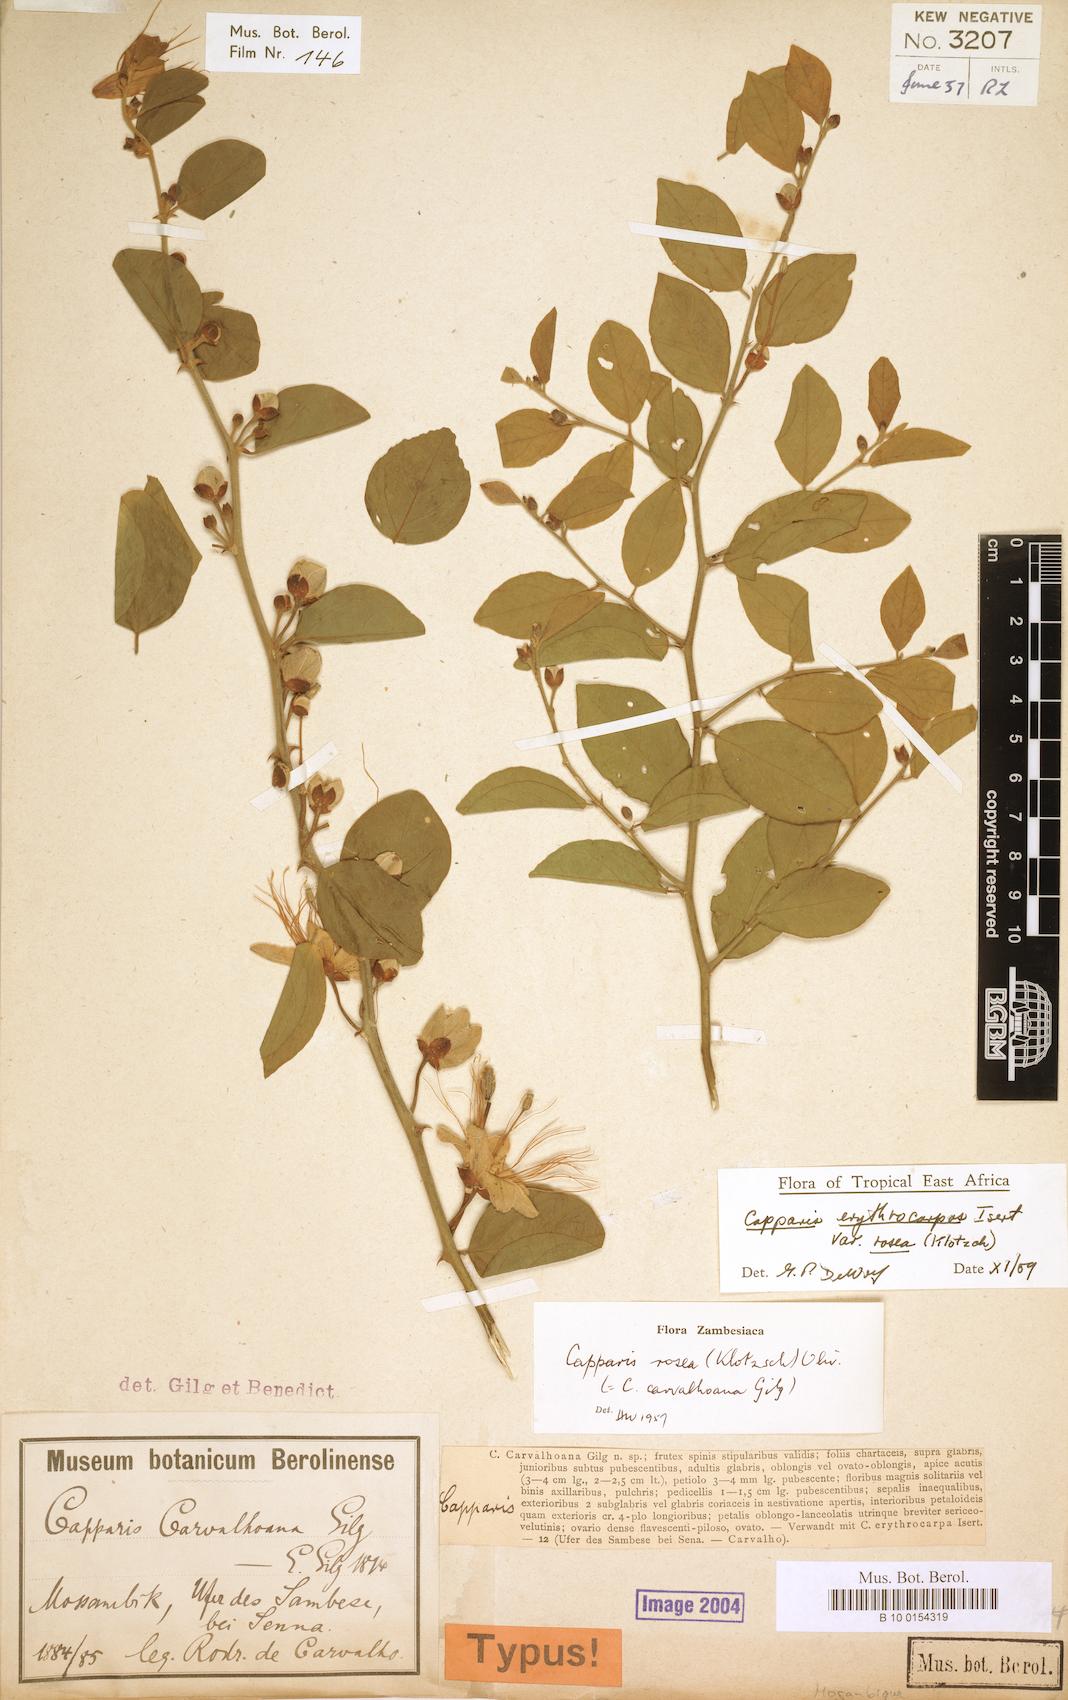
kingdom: Plantae
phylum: Tracheophyta
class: Magnoliopsida
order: Brassicales
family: Capparaceae
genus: Capparis
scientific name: Capparis erythrocarpos
